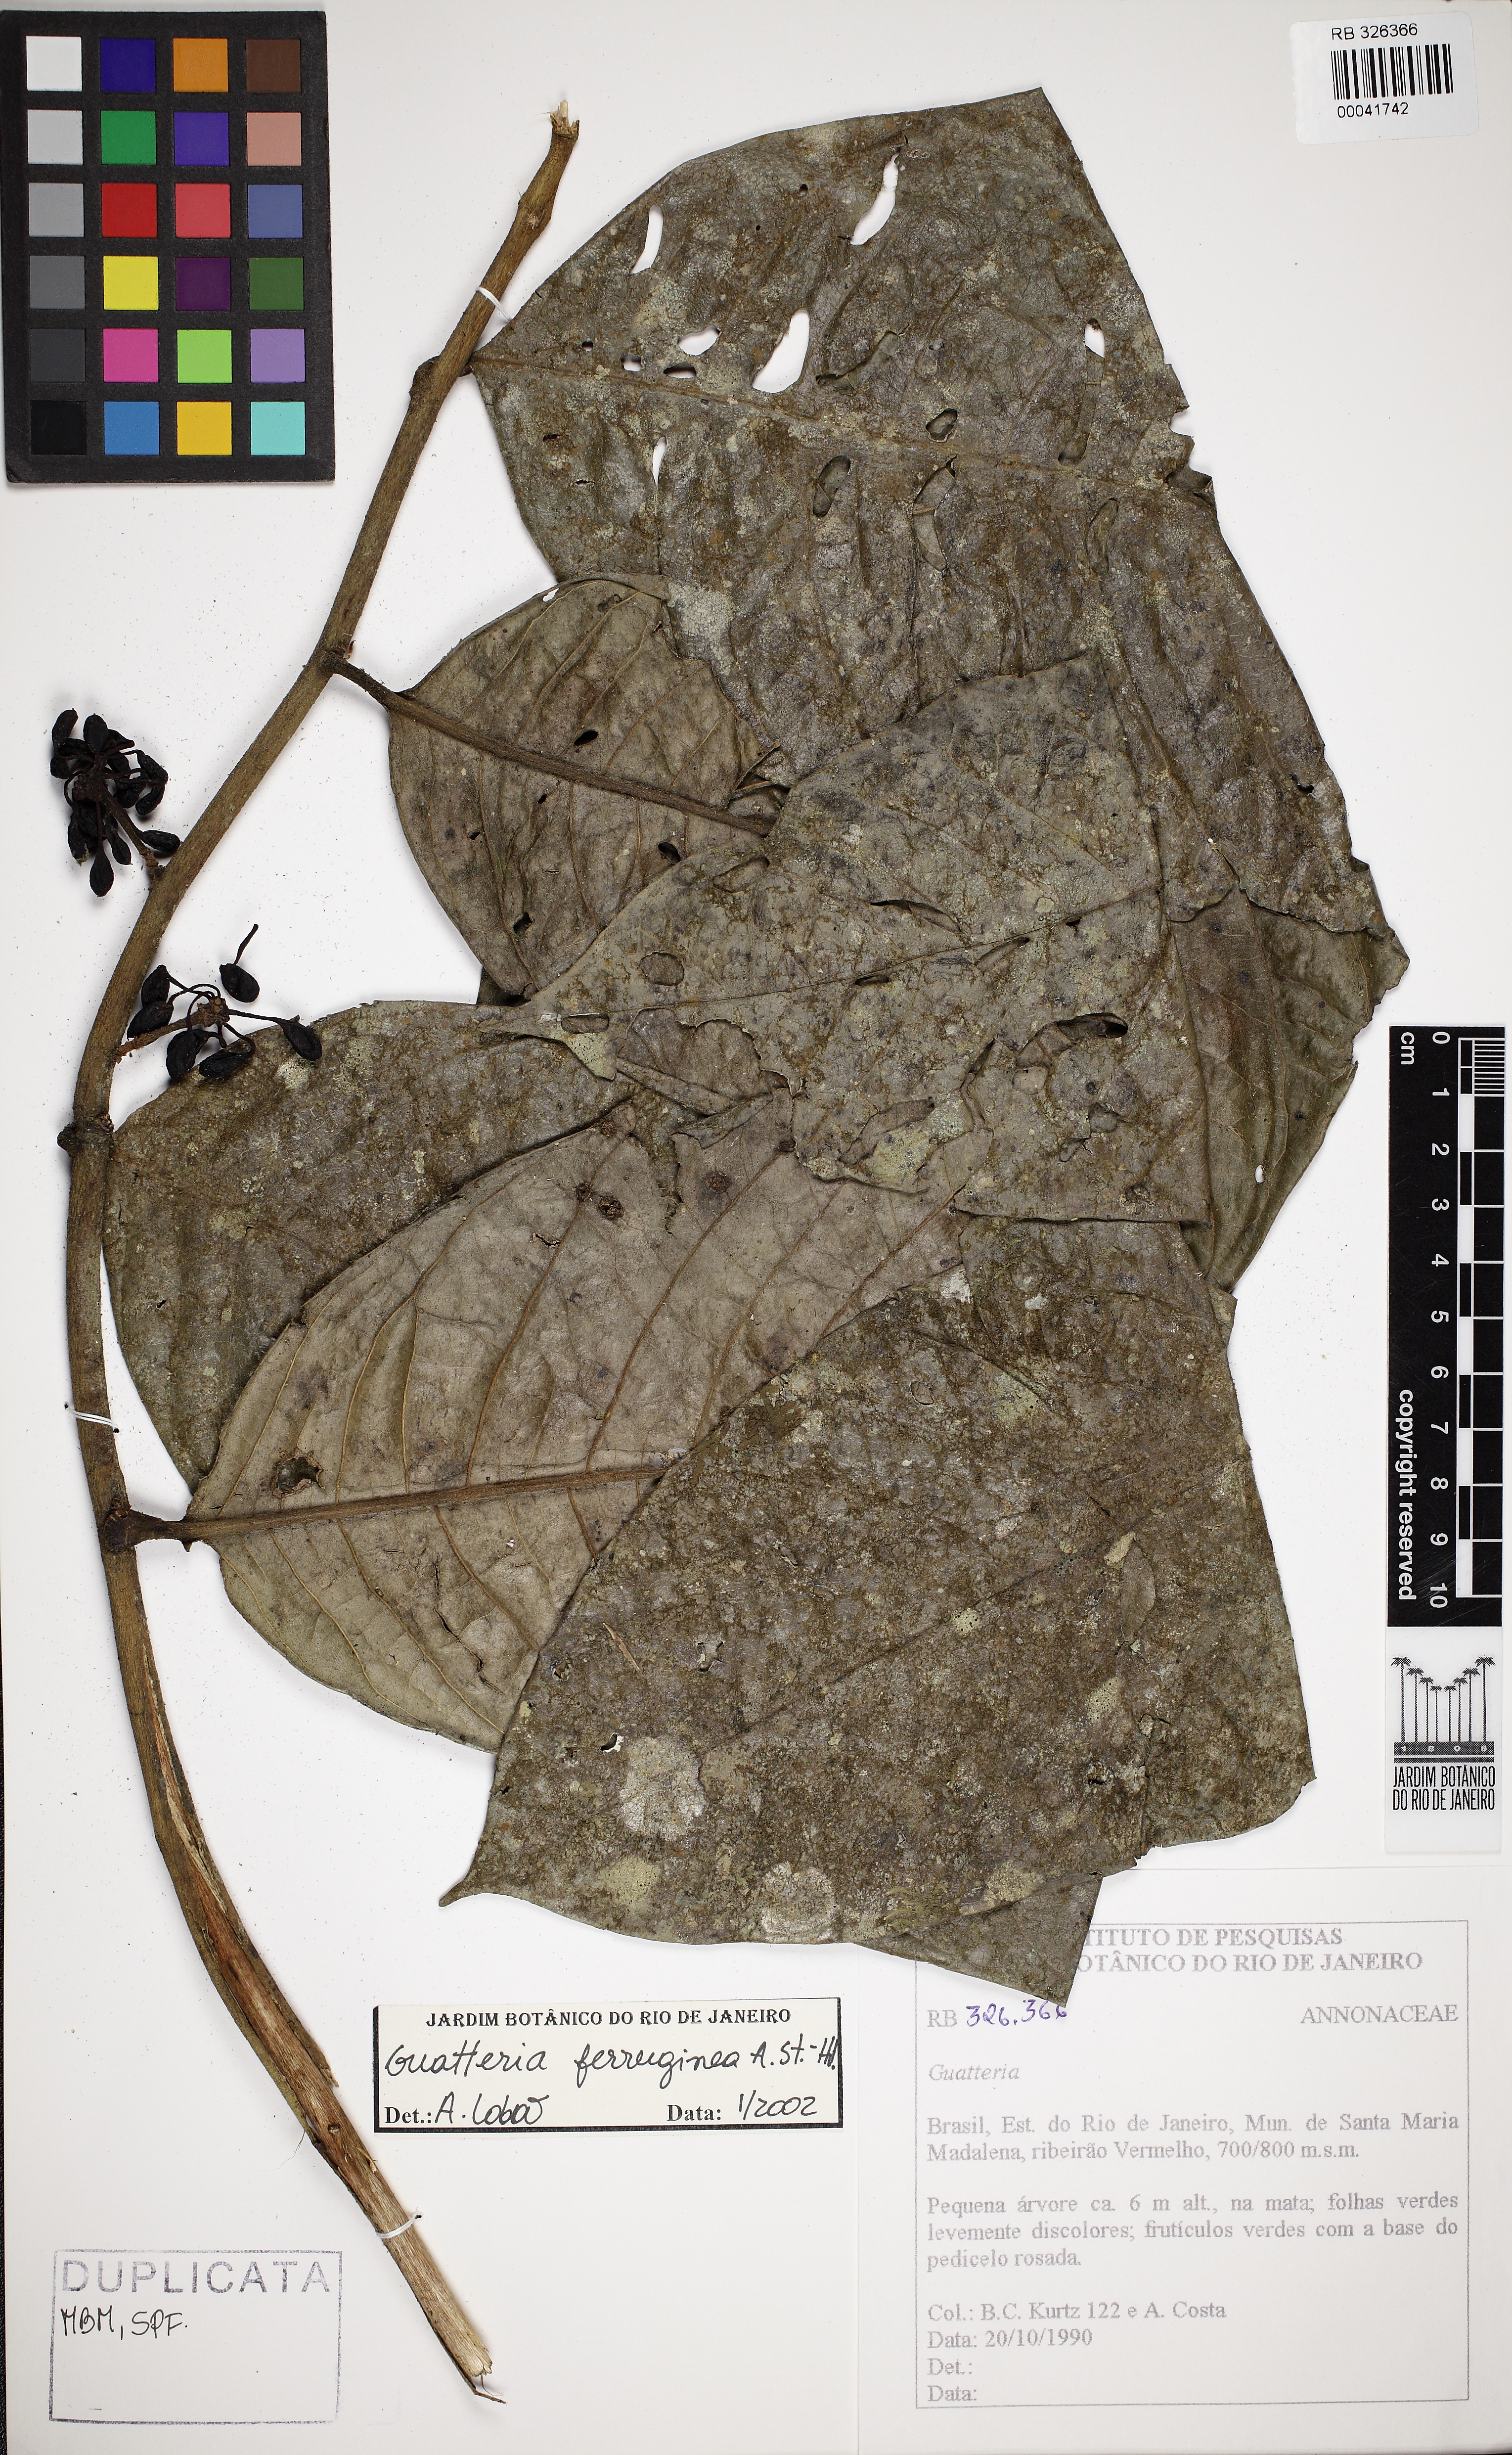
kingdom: Plantae
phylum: Tracheophyta
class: Magnoliopsida
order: Magnoliales
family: Annonaceae
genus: Guatteria
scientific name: Guatteria ferruginea
